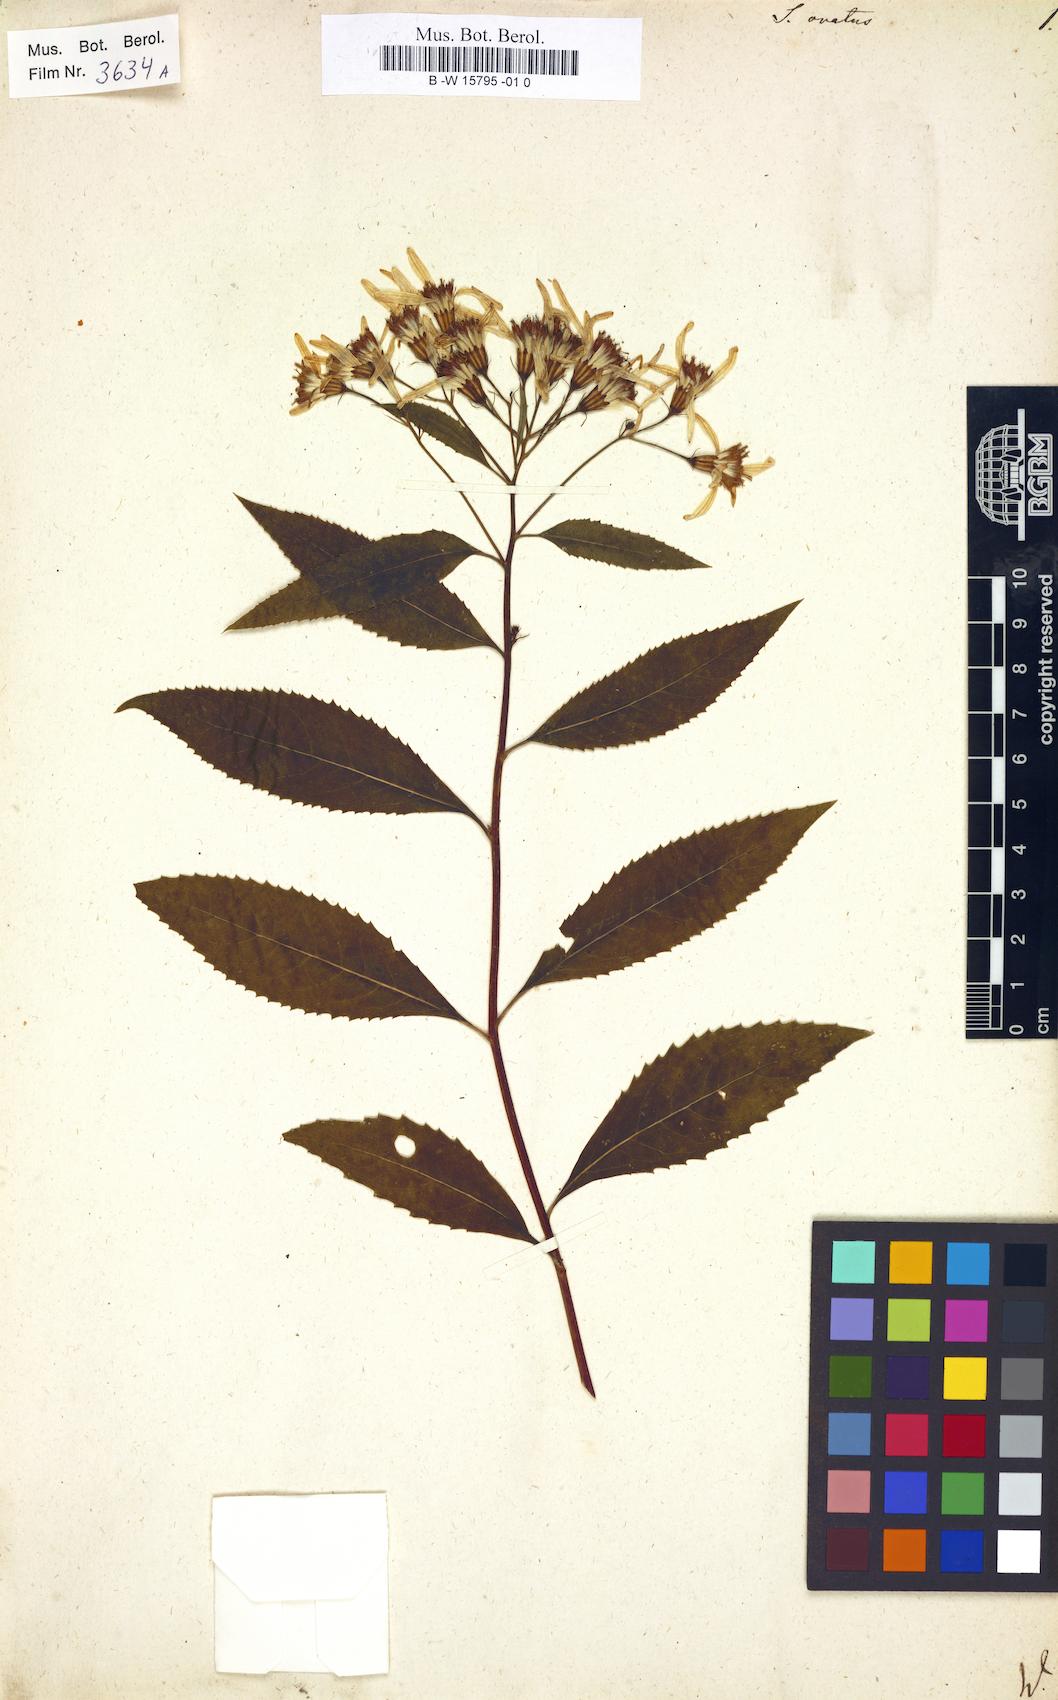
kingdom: Plantae
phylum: Tracheophyta
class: Magnoliopsida
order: Asterales
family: Asteraceae
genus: Senecio
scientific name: Senecio ovatus
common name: Wood ragwort
